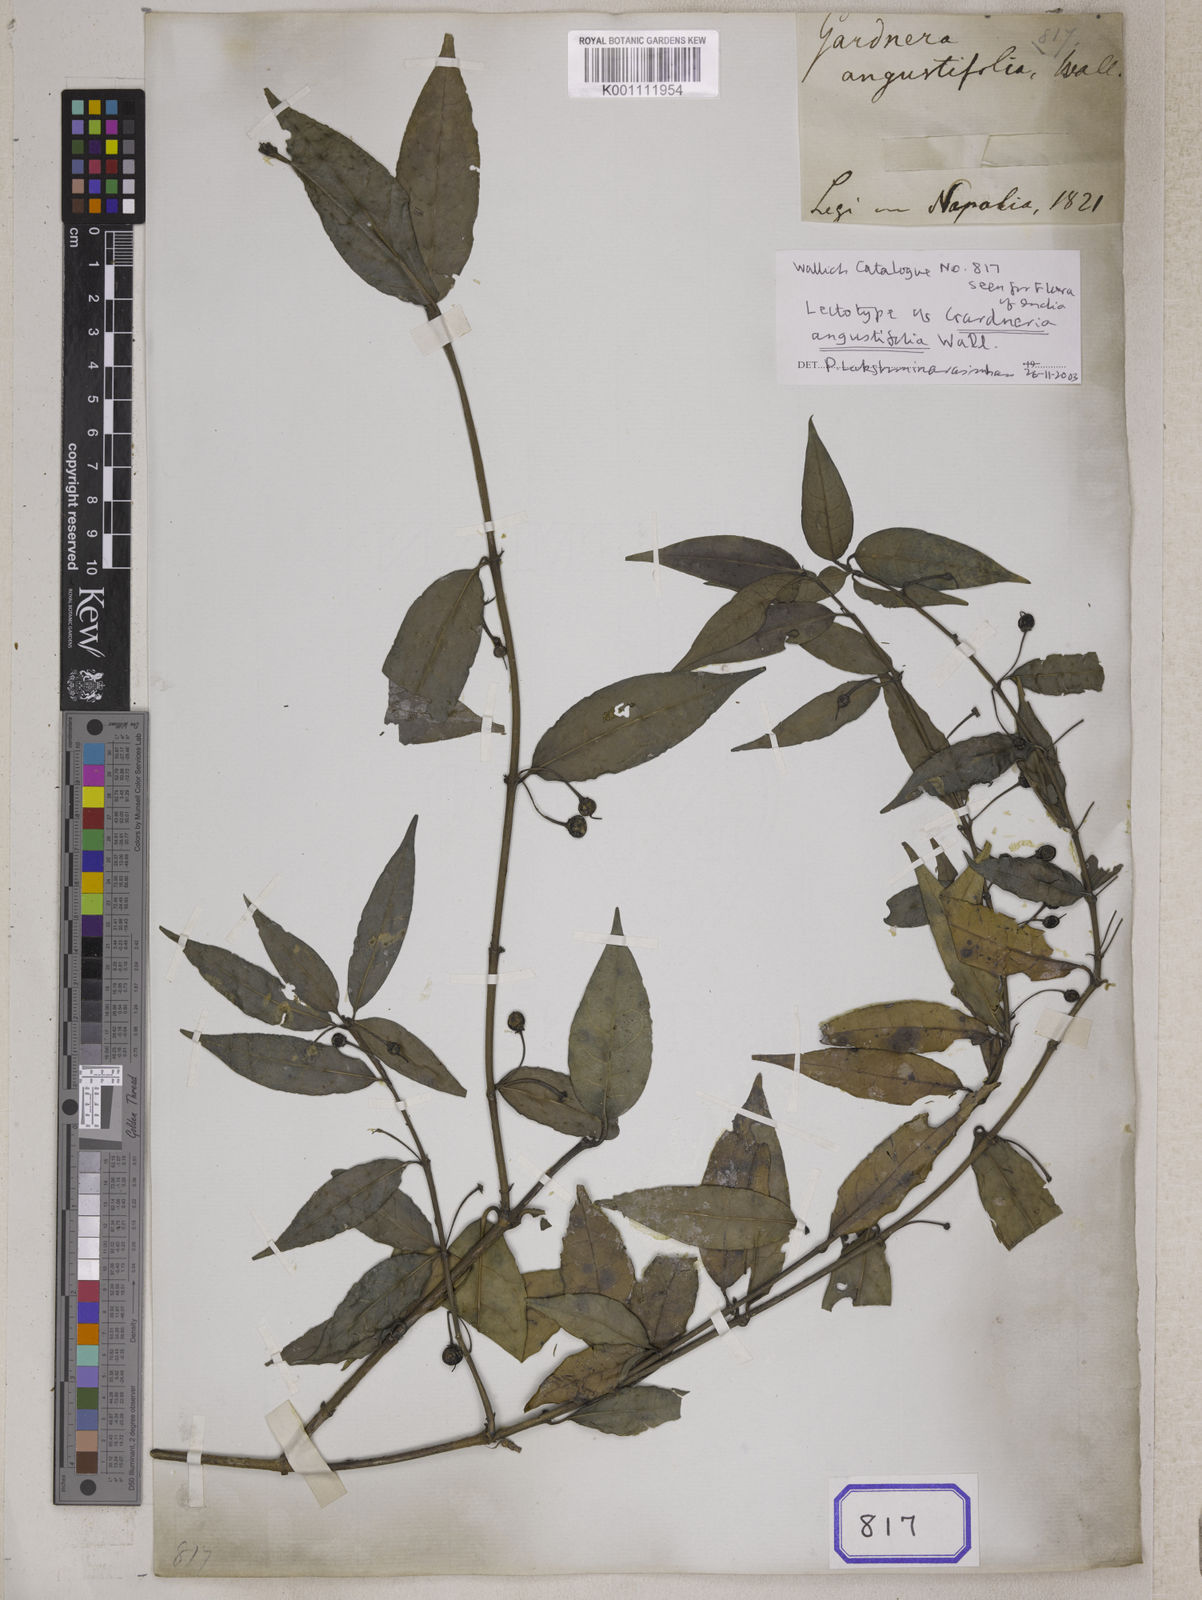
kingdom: Plantae
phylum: Tracheophyta
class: Magnoliopsida
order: Gentianales
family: Loganiaceae
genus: Gardneria
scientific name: Gardneria angustifolia
